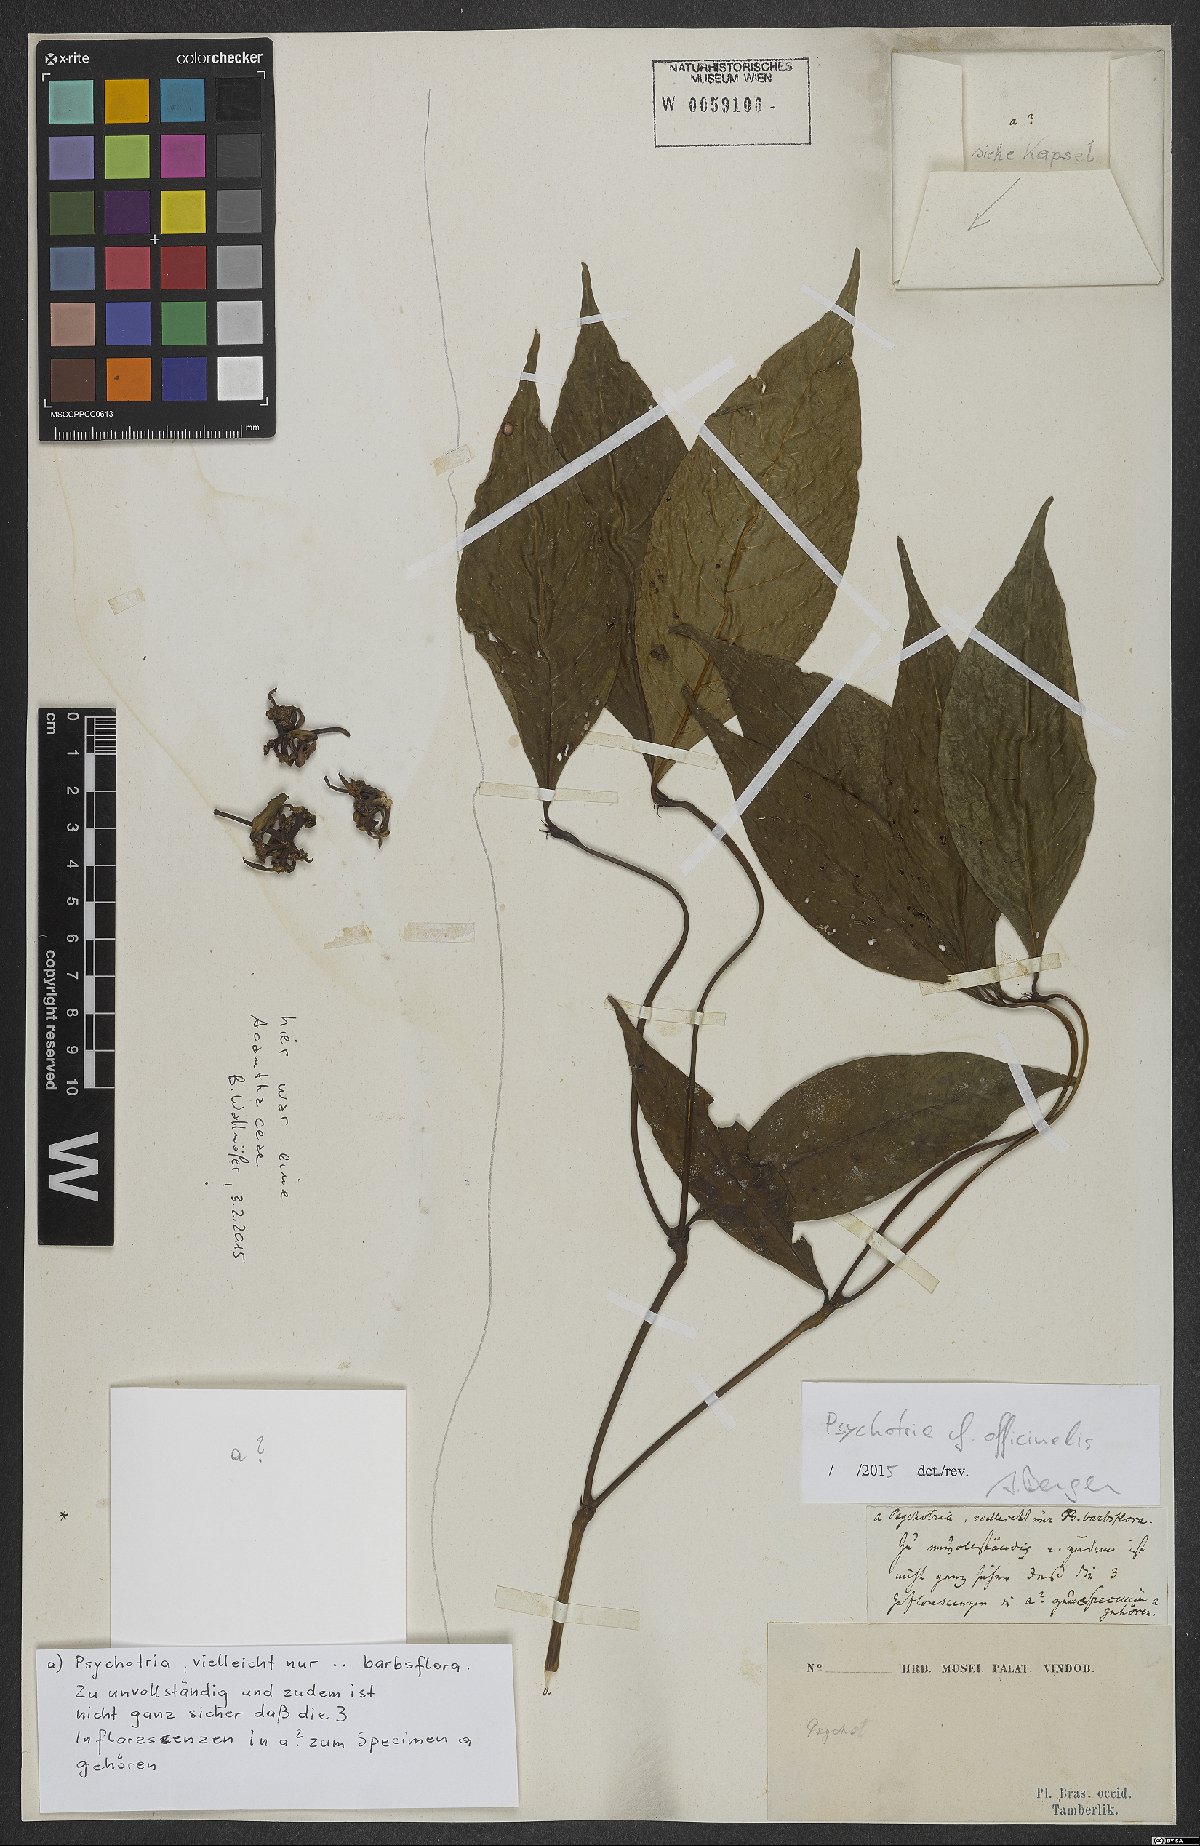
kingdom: Plantae
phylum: Tracheophyta
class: Magnoliopsida
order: Gentianales
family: Rubiaceae
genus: Palicourea
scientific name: Palicourea tenerior
